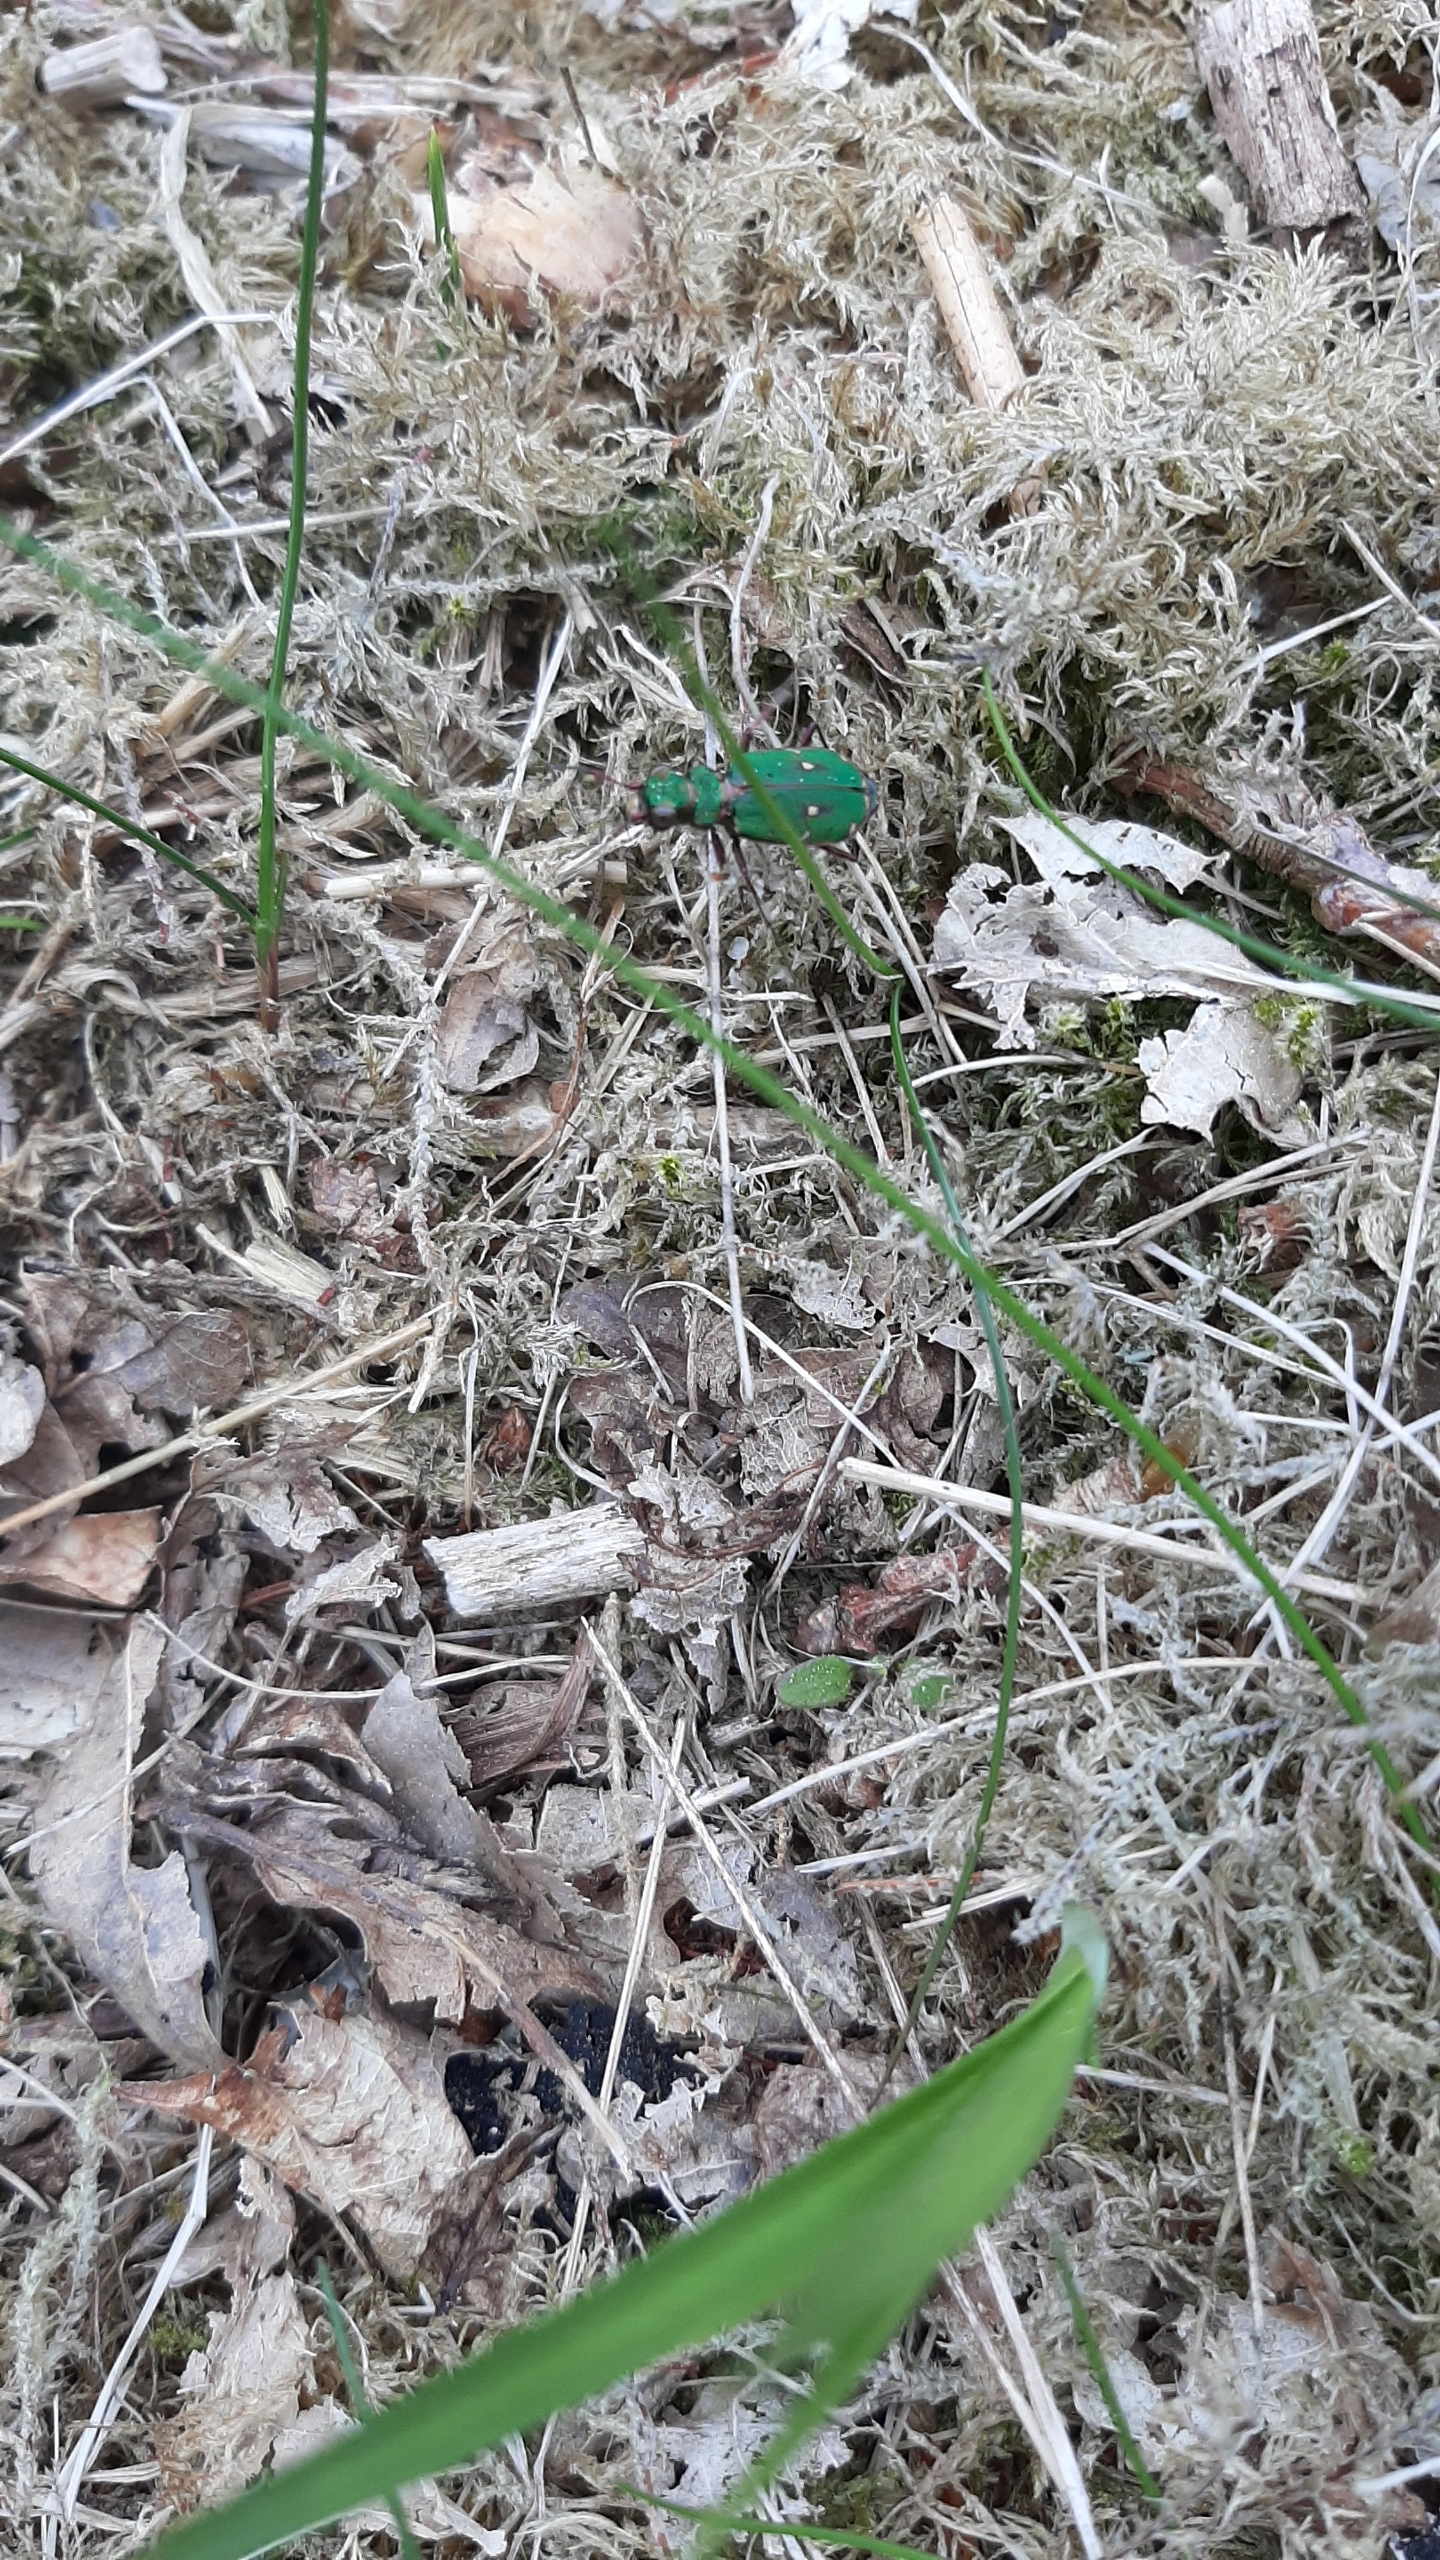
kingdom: Animalia
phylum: Arthropoda
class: Insecta
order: Coleoptera
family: Carabidae
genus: Cicindela
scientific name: Cicindela campestris
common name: Grøn sandspringer
